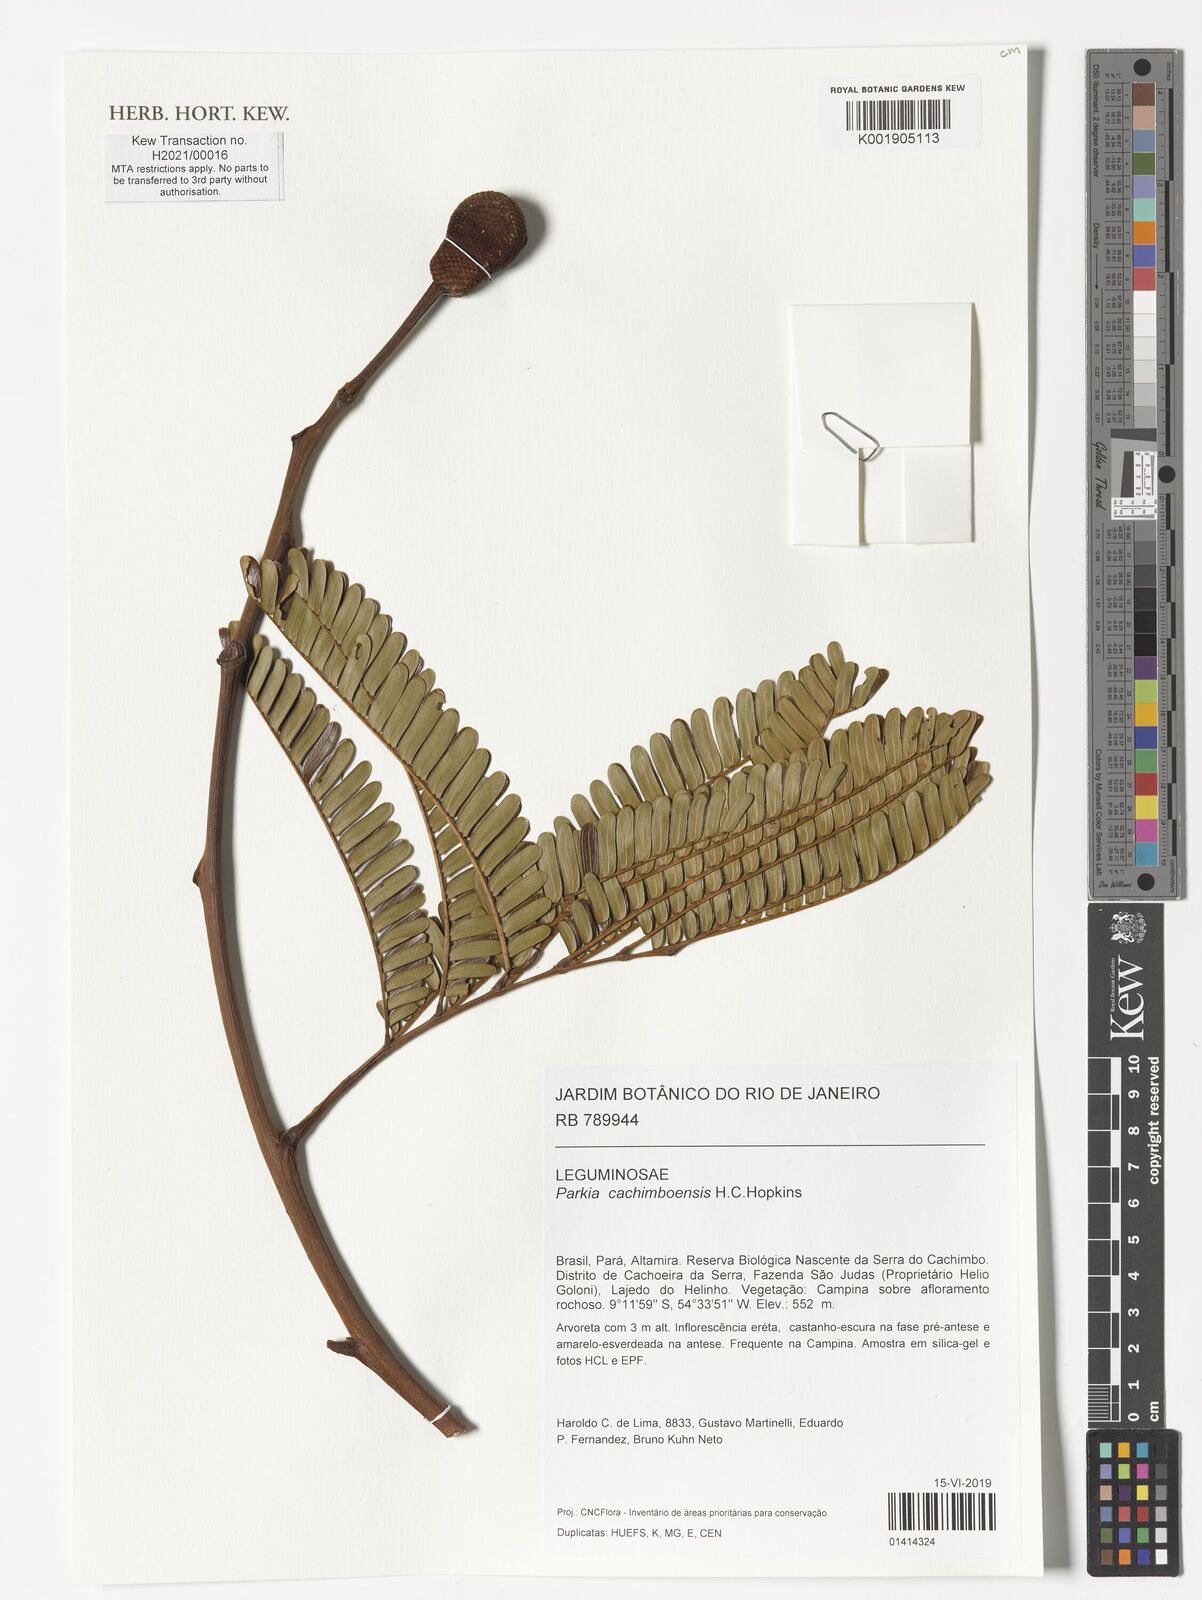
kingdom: Plantae
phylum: Tracheophyta
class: Magnoliopsida
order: Fabales
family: Fabaceae
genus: Parkia
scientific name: Parkia cachimboensis
